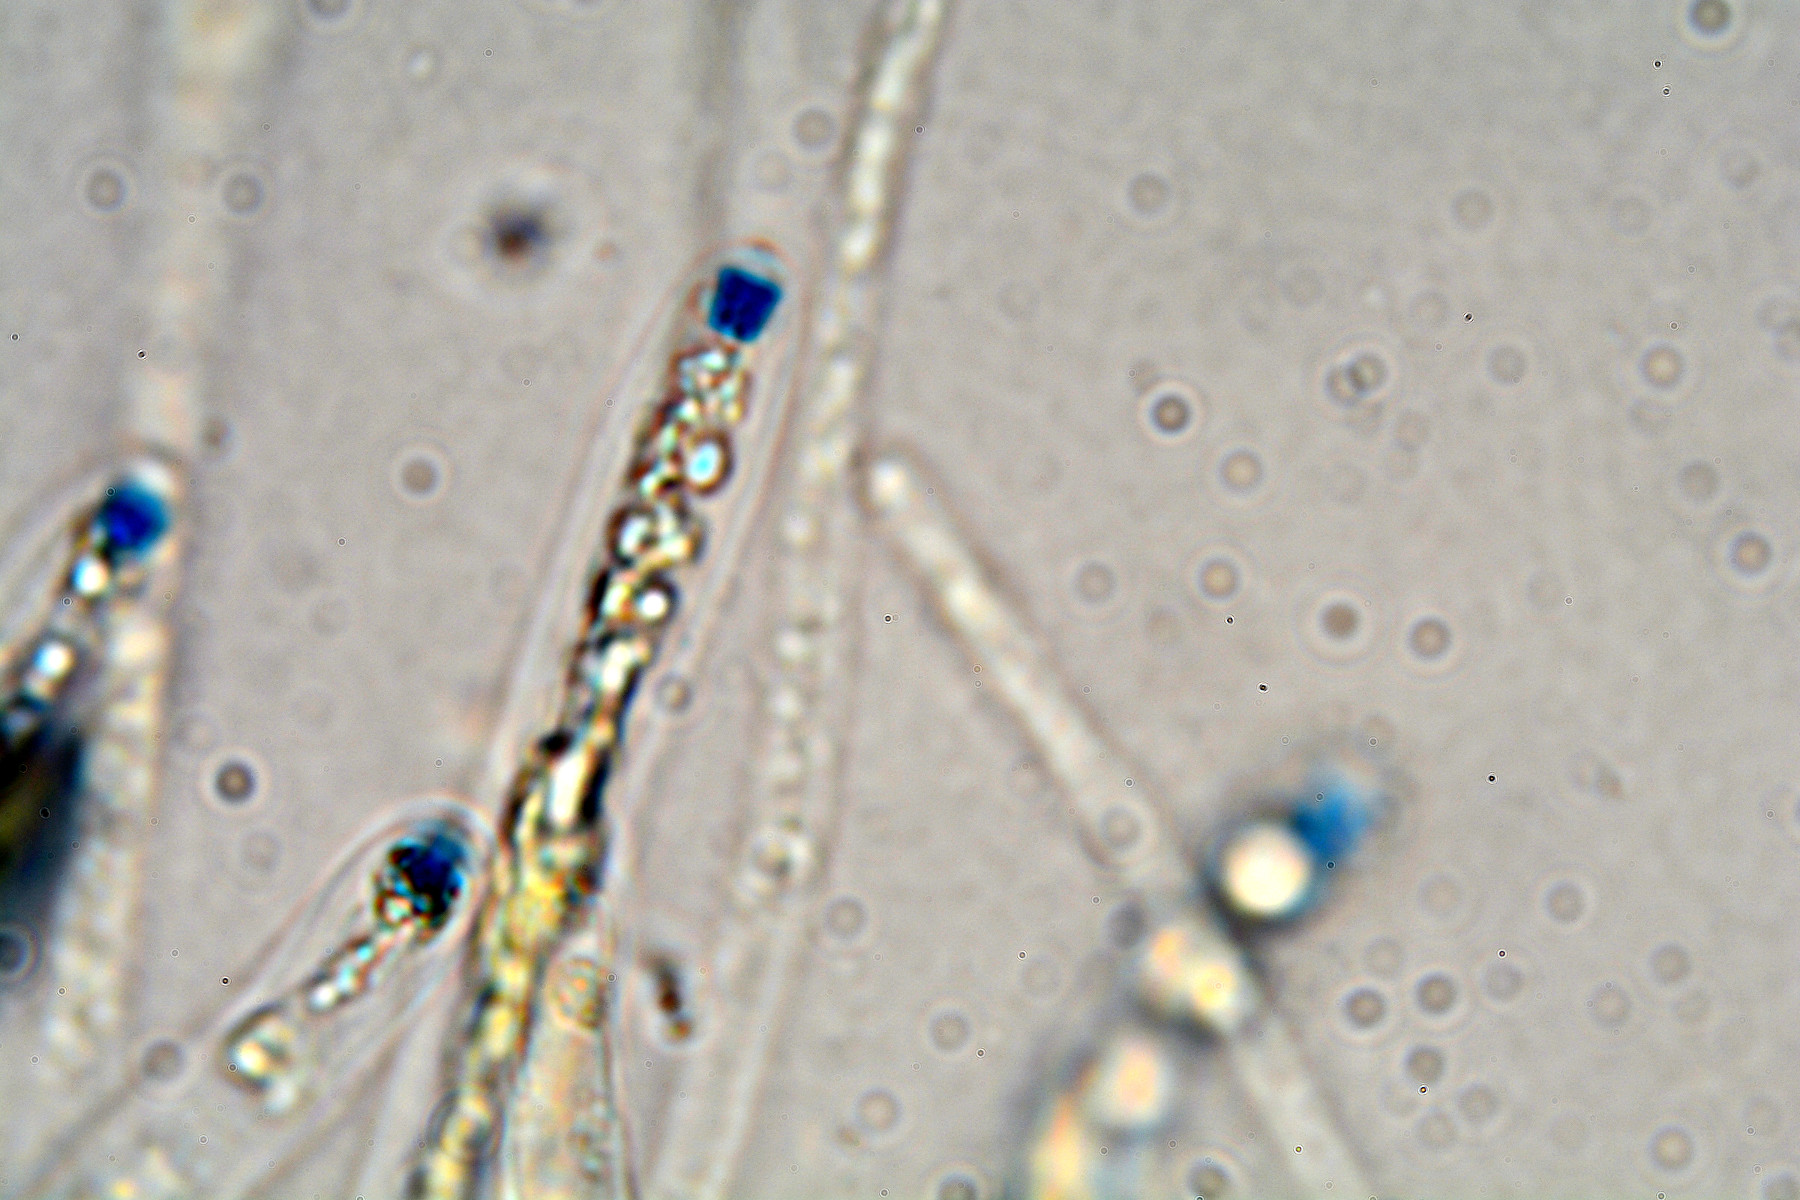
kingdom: Fungi
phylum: Ascomycota
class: Sordariomycetes
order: Xylariales
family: Xylariaceae
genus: Nemania
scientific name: Nemania chestersii
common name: stribesporet kuldyne
